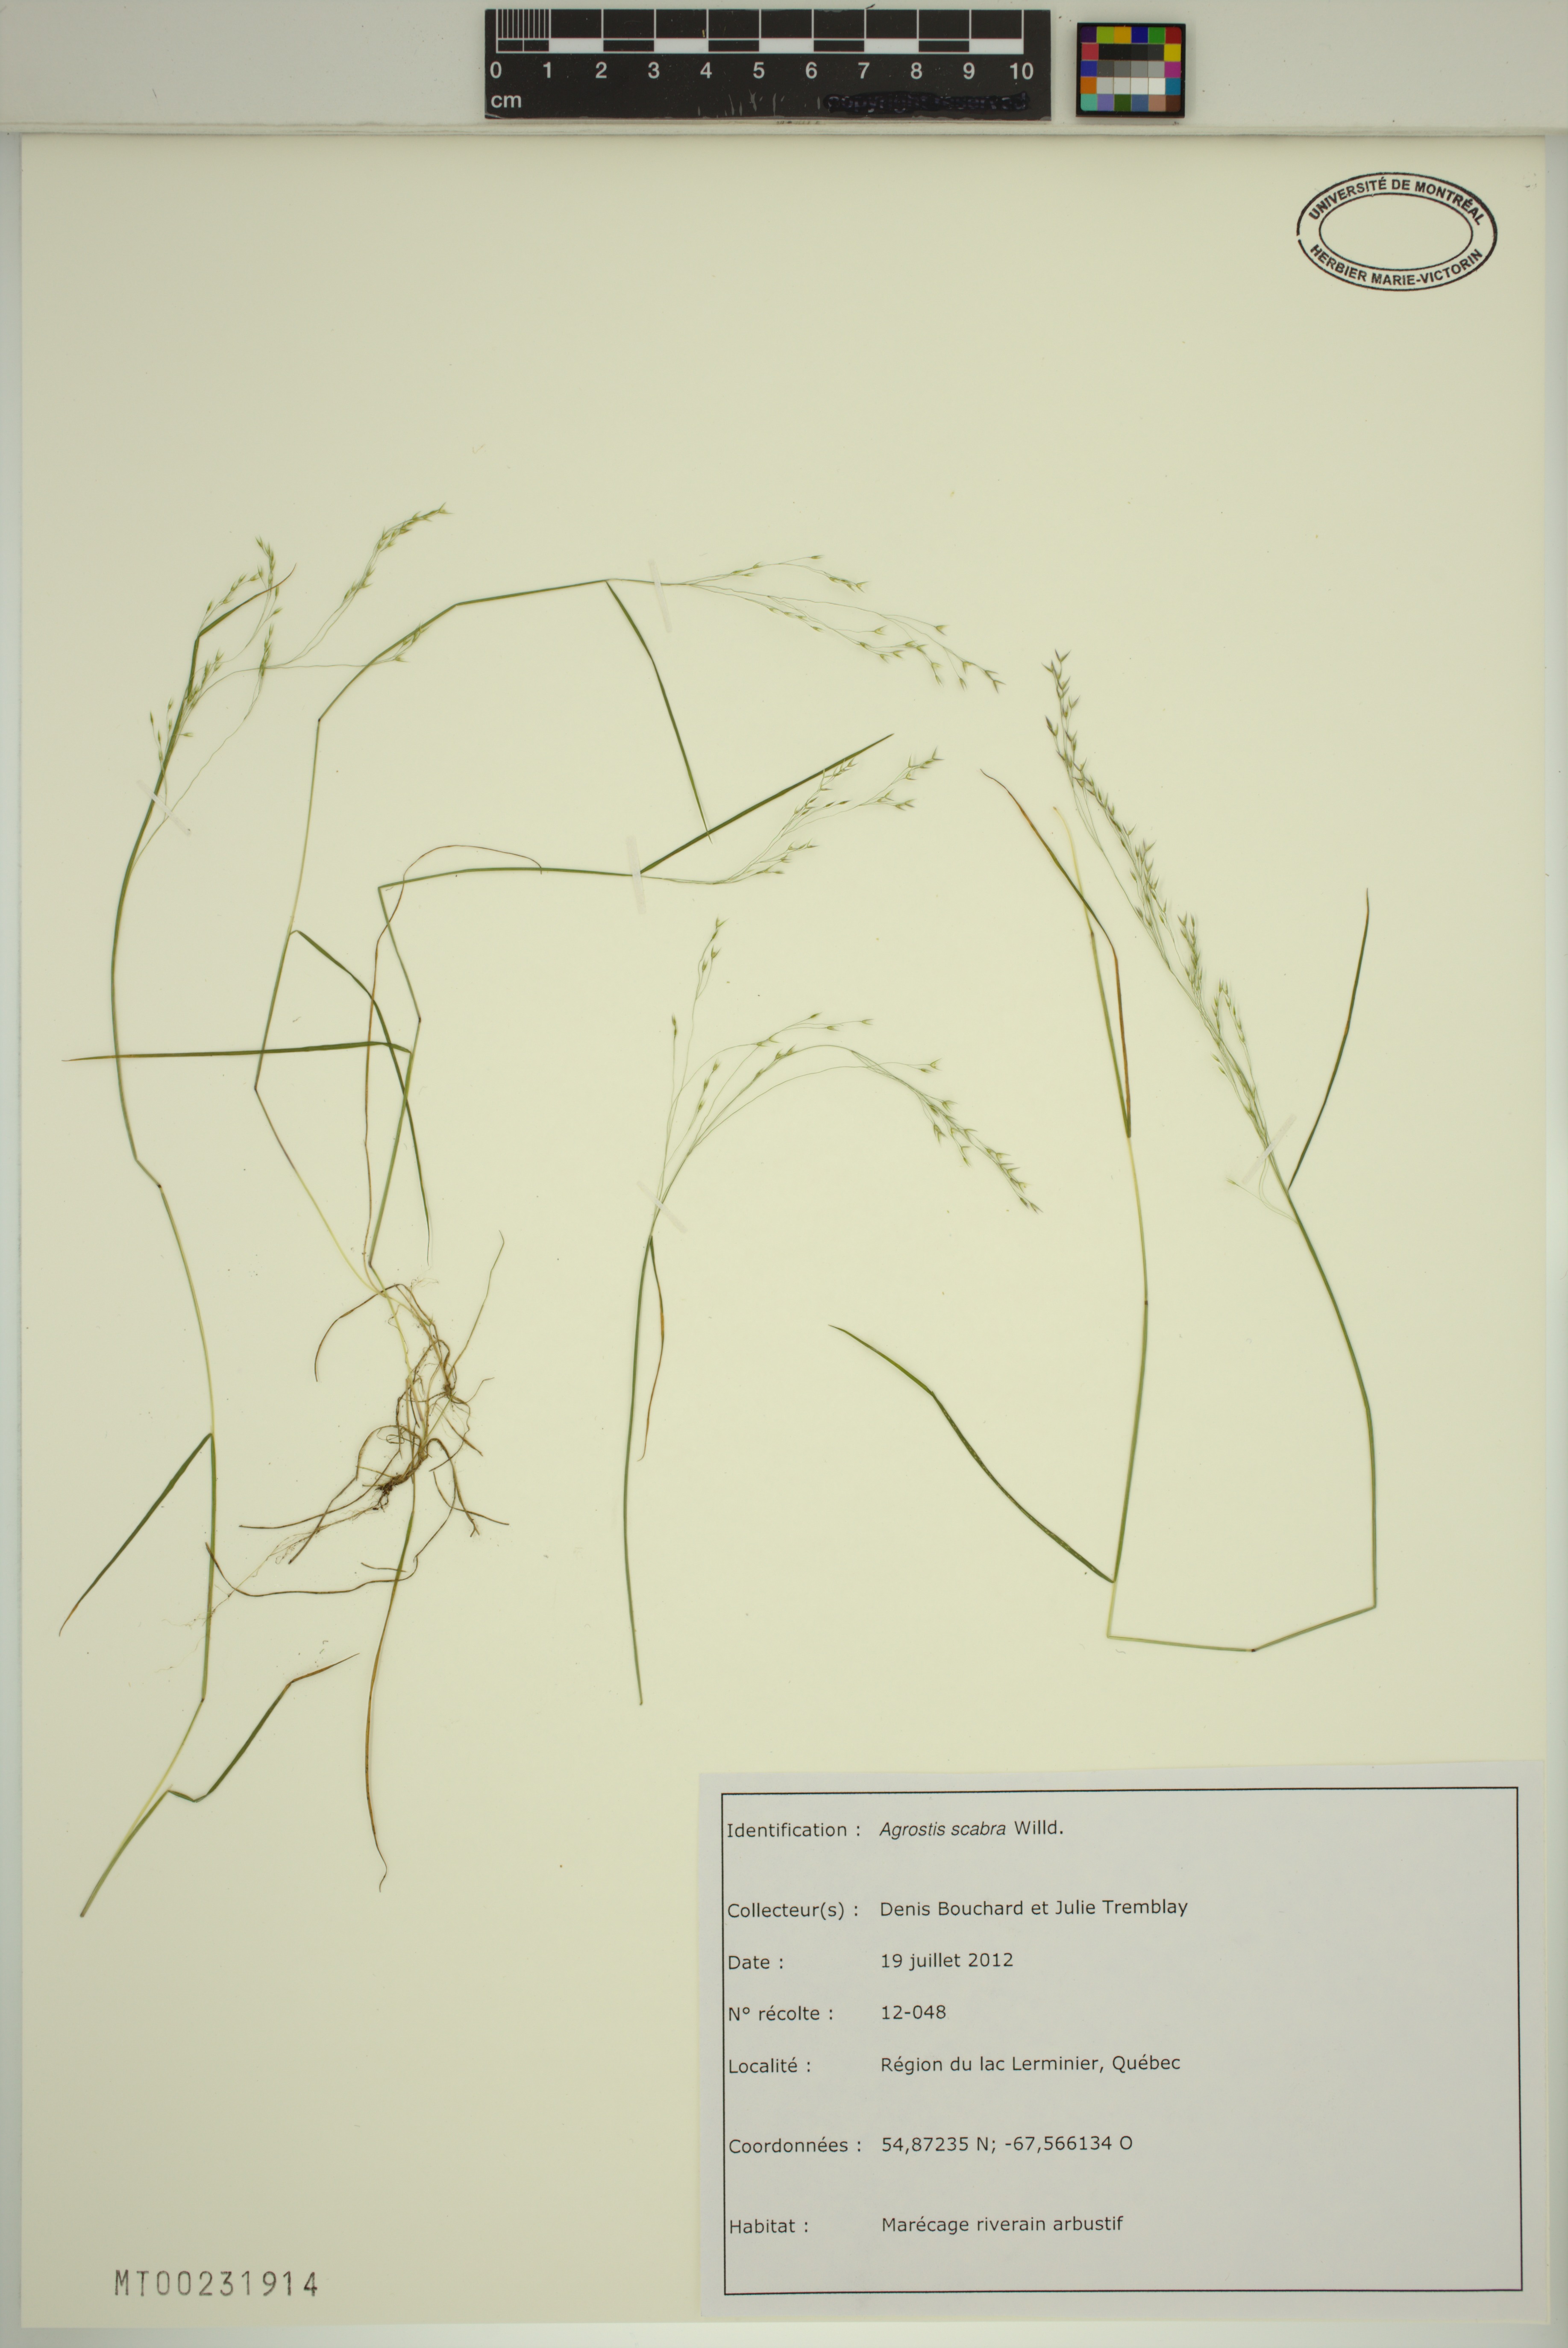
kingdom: Plantae
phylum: Tracheophyta
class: Liliopsida
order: Poales
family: Poaceae
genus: Agrostis
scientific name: Agrostis scabra
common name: Rough bent
